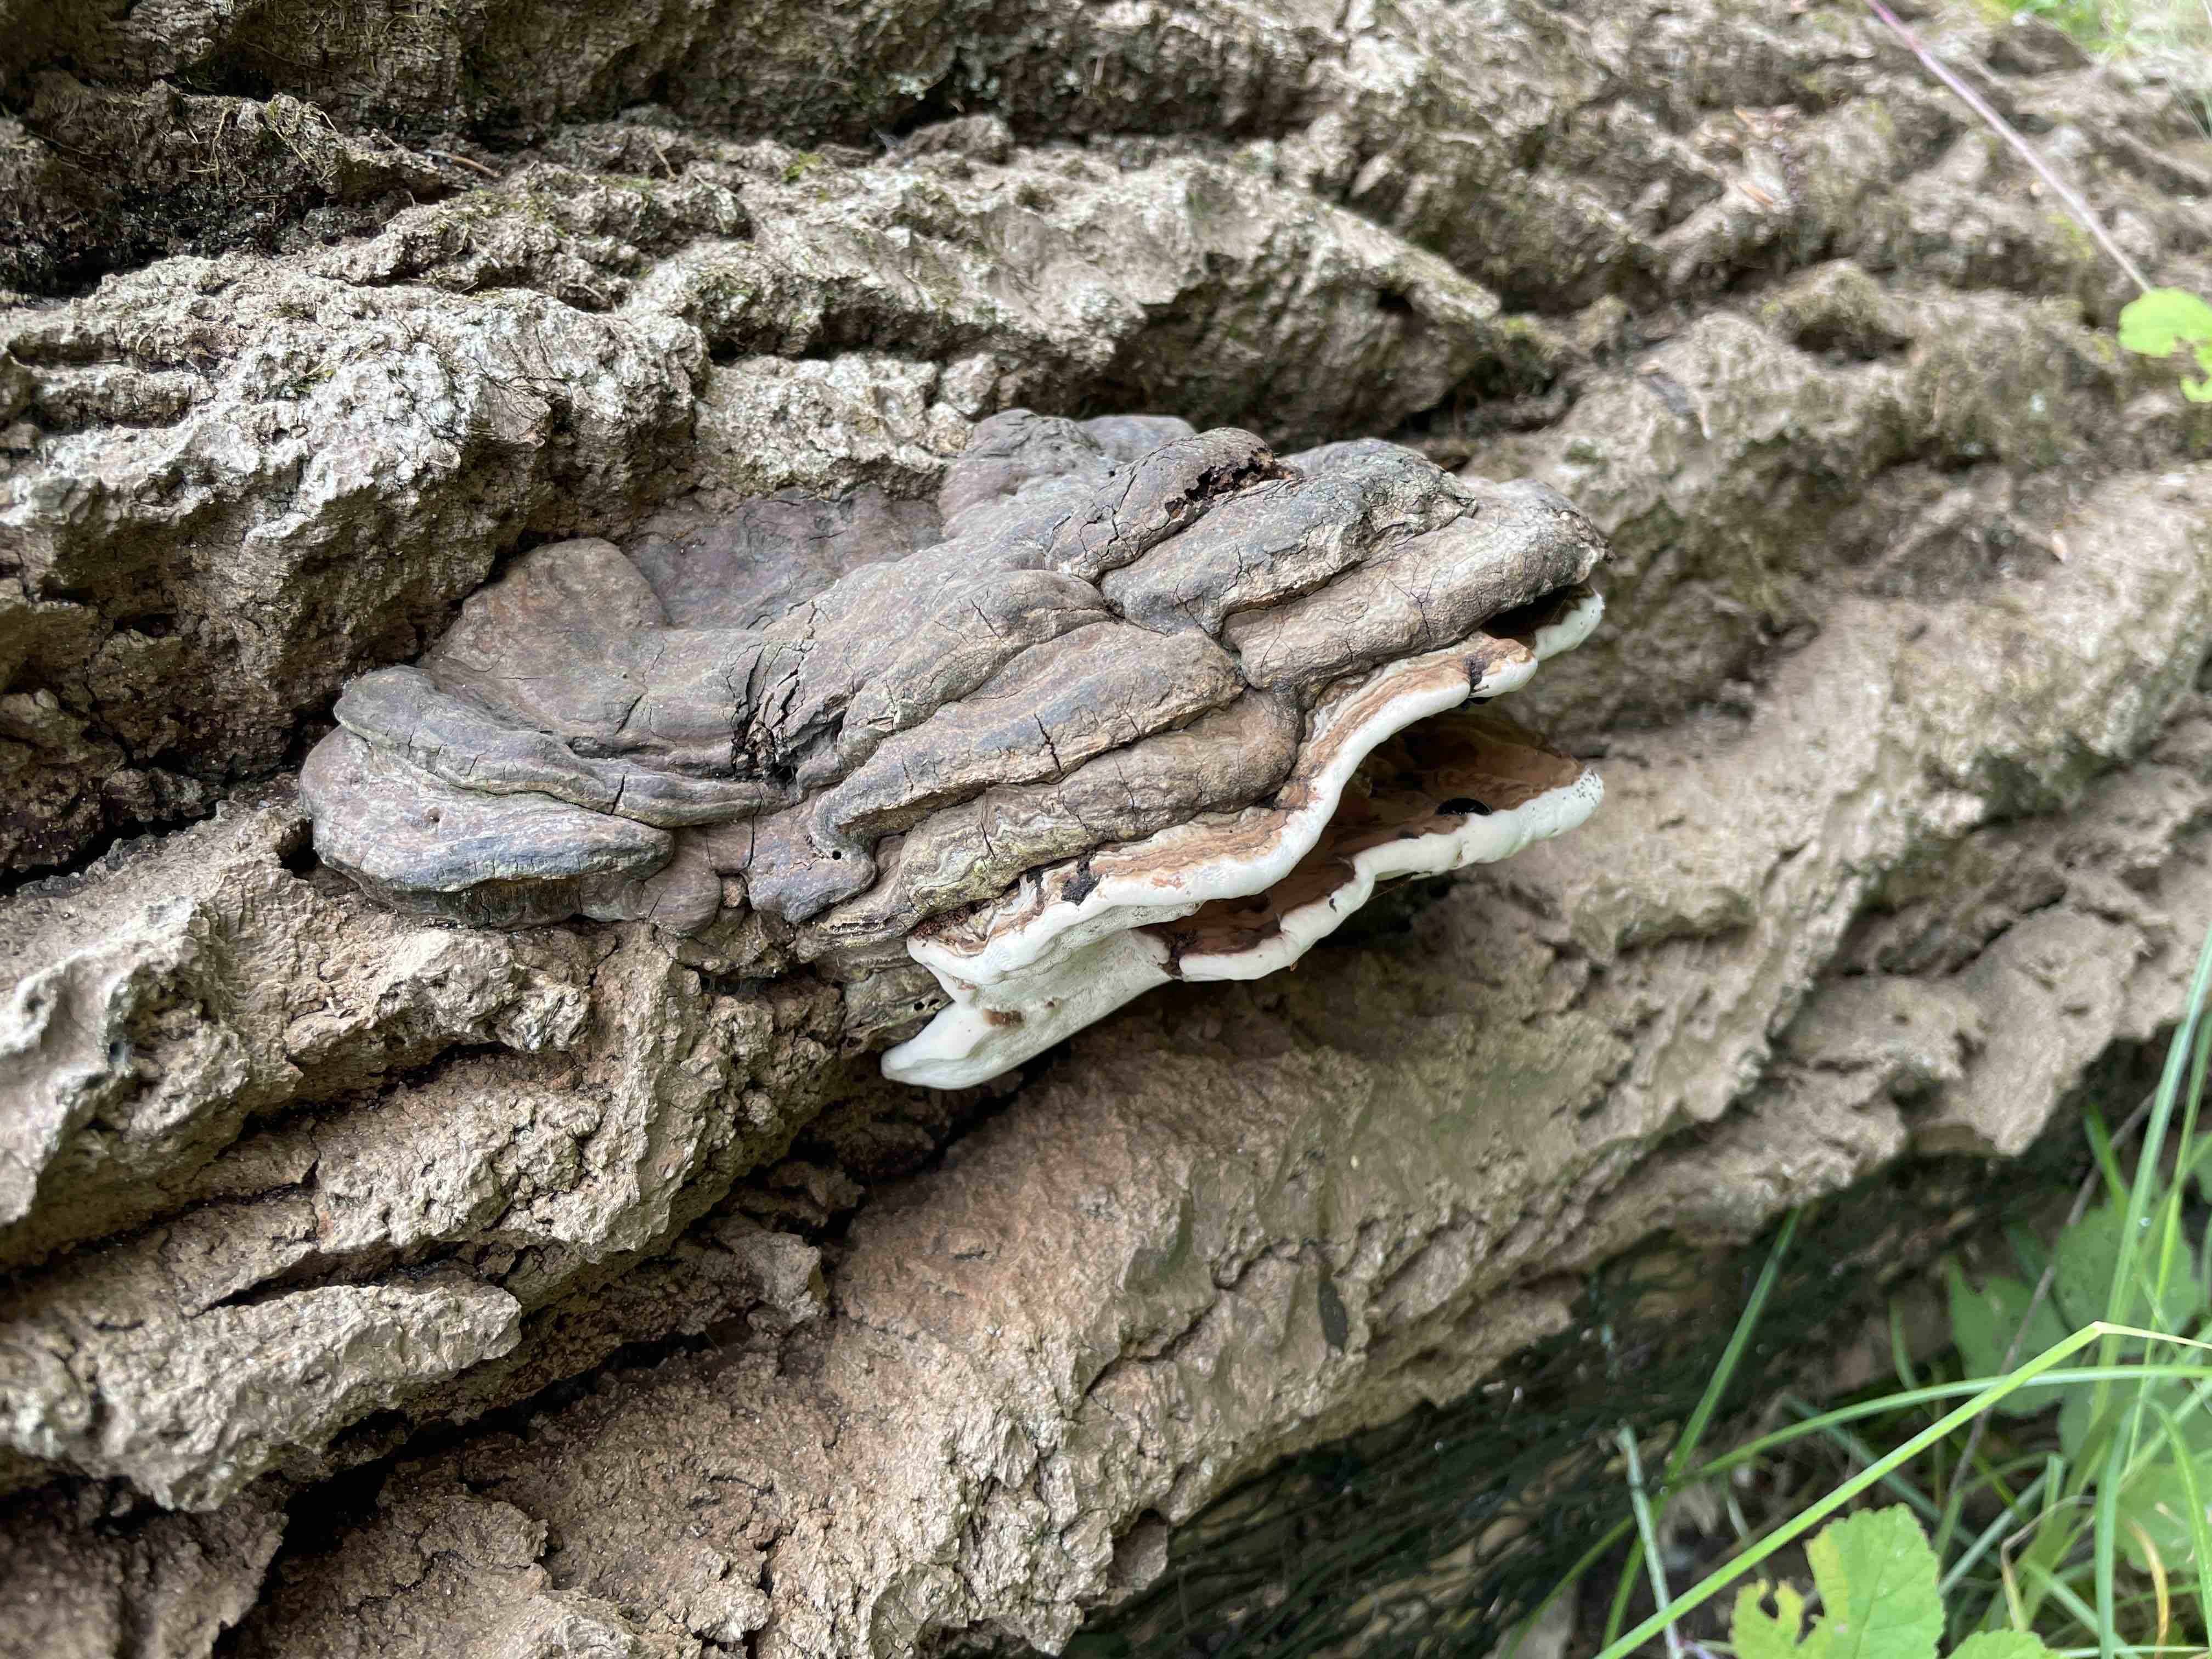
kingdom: Fungi
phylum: Basidiomycota
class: Agaricomycetes
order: Polyporales
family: Polyporaceae
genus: Ganoderma
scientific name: Ganoderma applanatum
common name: flad lakporesvamp
